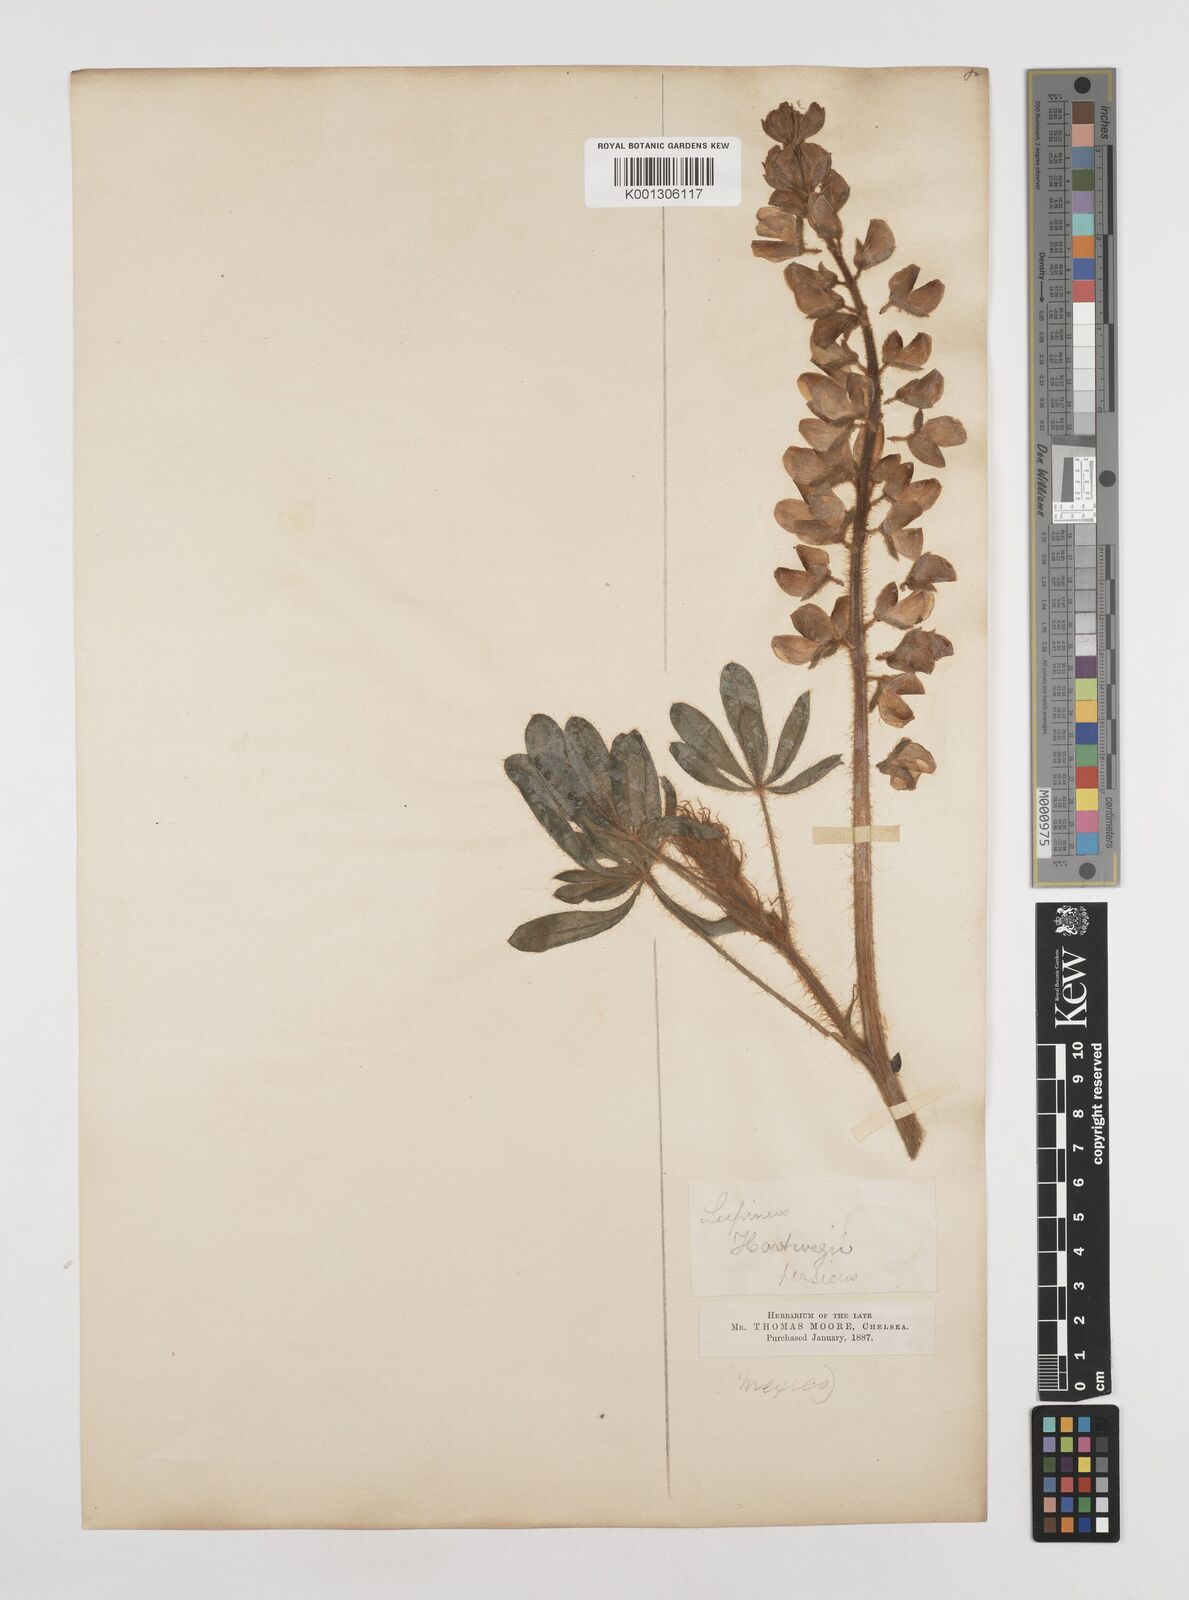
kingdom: Plantae
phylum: Tracheophyta
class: Magnoliopsida
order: Fabales
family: Fabaceae
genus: Lupinus
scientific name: Lupinus ehrenbergii
